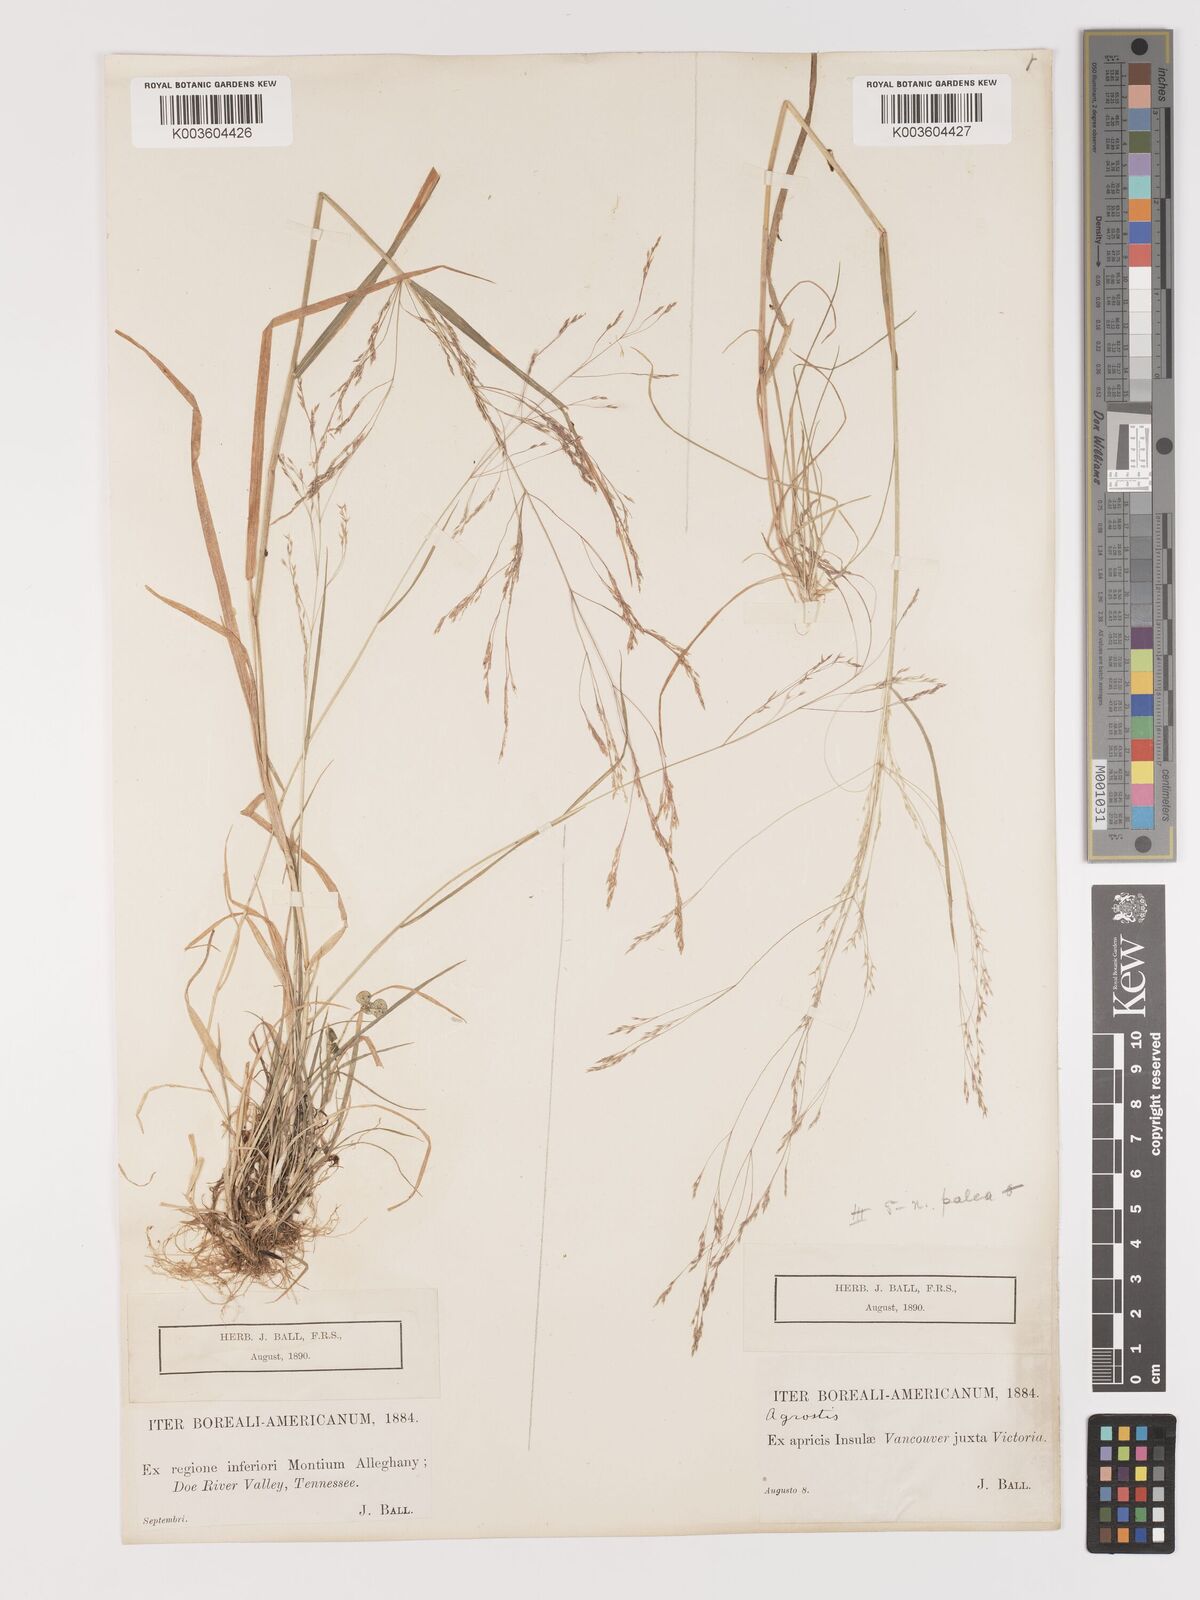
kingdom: Plantae
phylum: Tracheophyta
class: Liliopsida
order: Poales
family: Poaceae
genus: Agrostis
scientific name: Agrostis hyemalis
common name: Small bent
